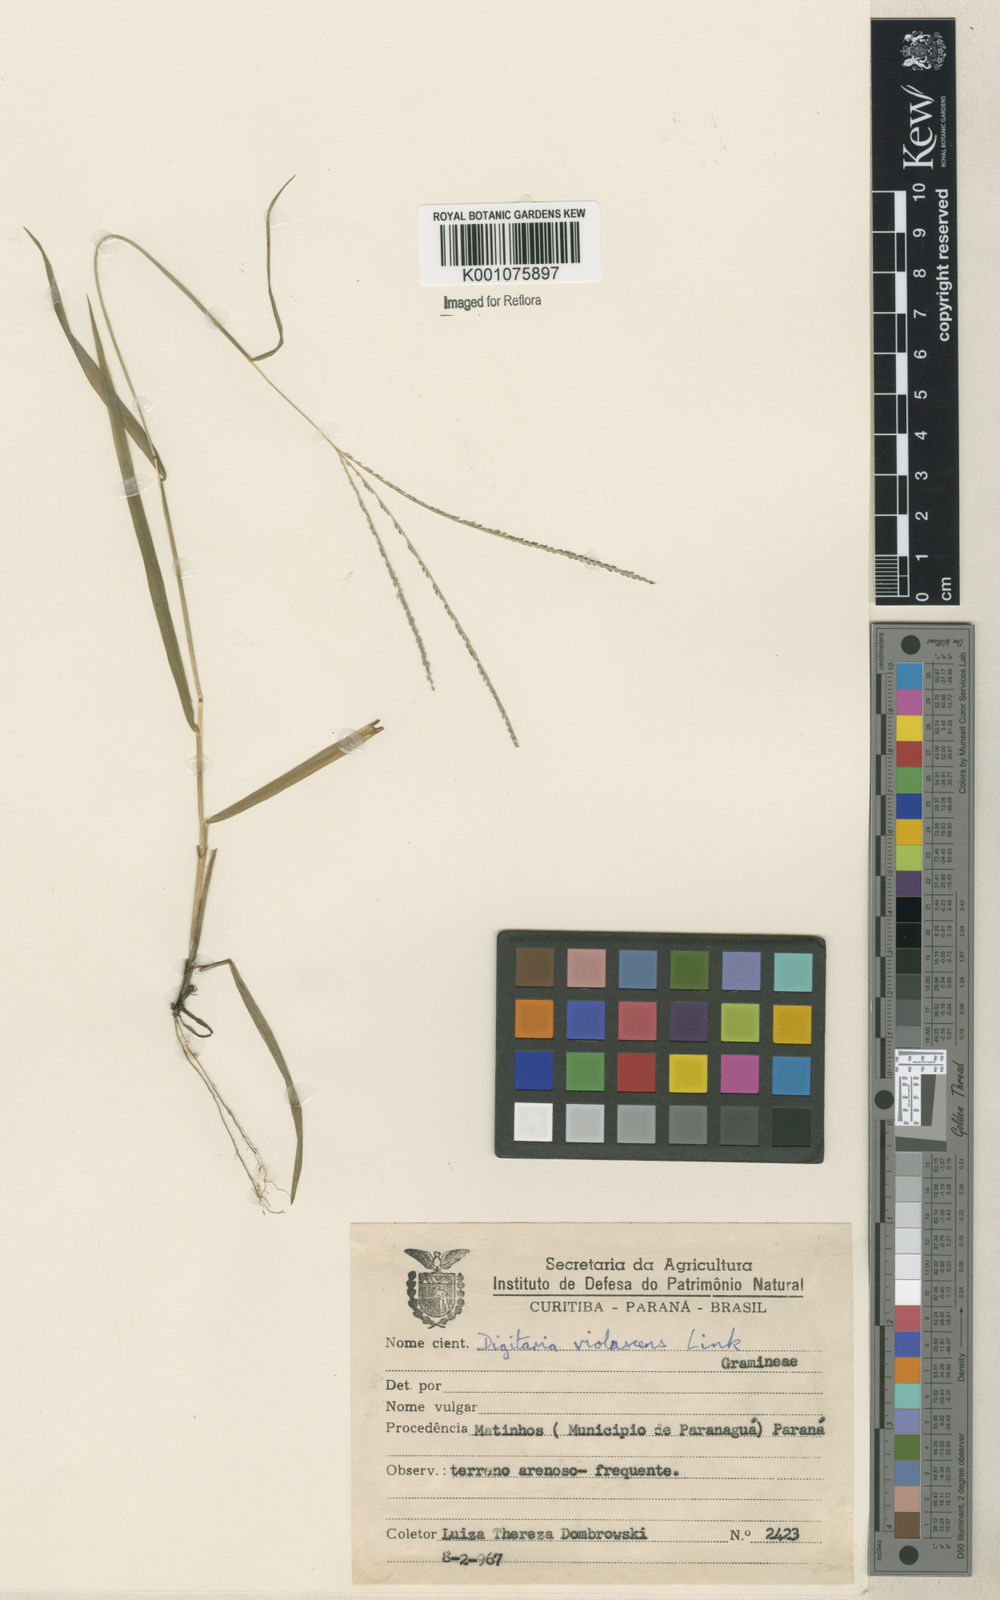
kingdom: Plantae
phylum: Tracheophyta
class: Liliopsida
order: Poales
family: Poaceae
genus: Digitaria
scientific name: Digitaria violascens
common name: Violet crabgrass
